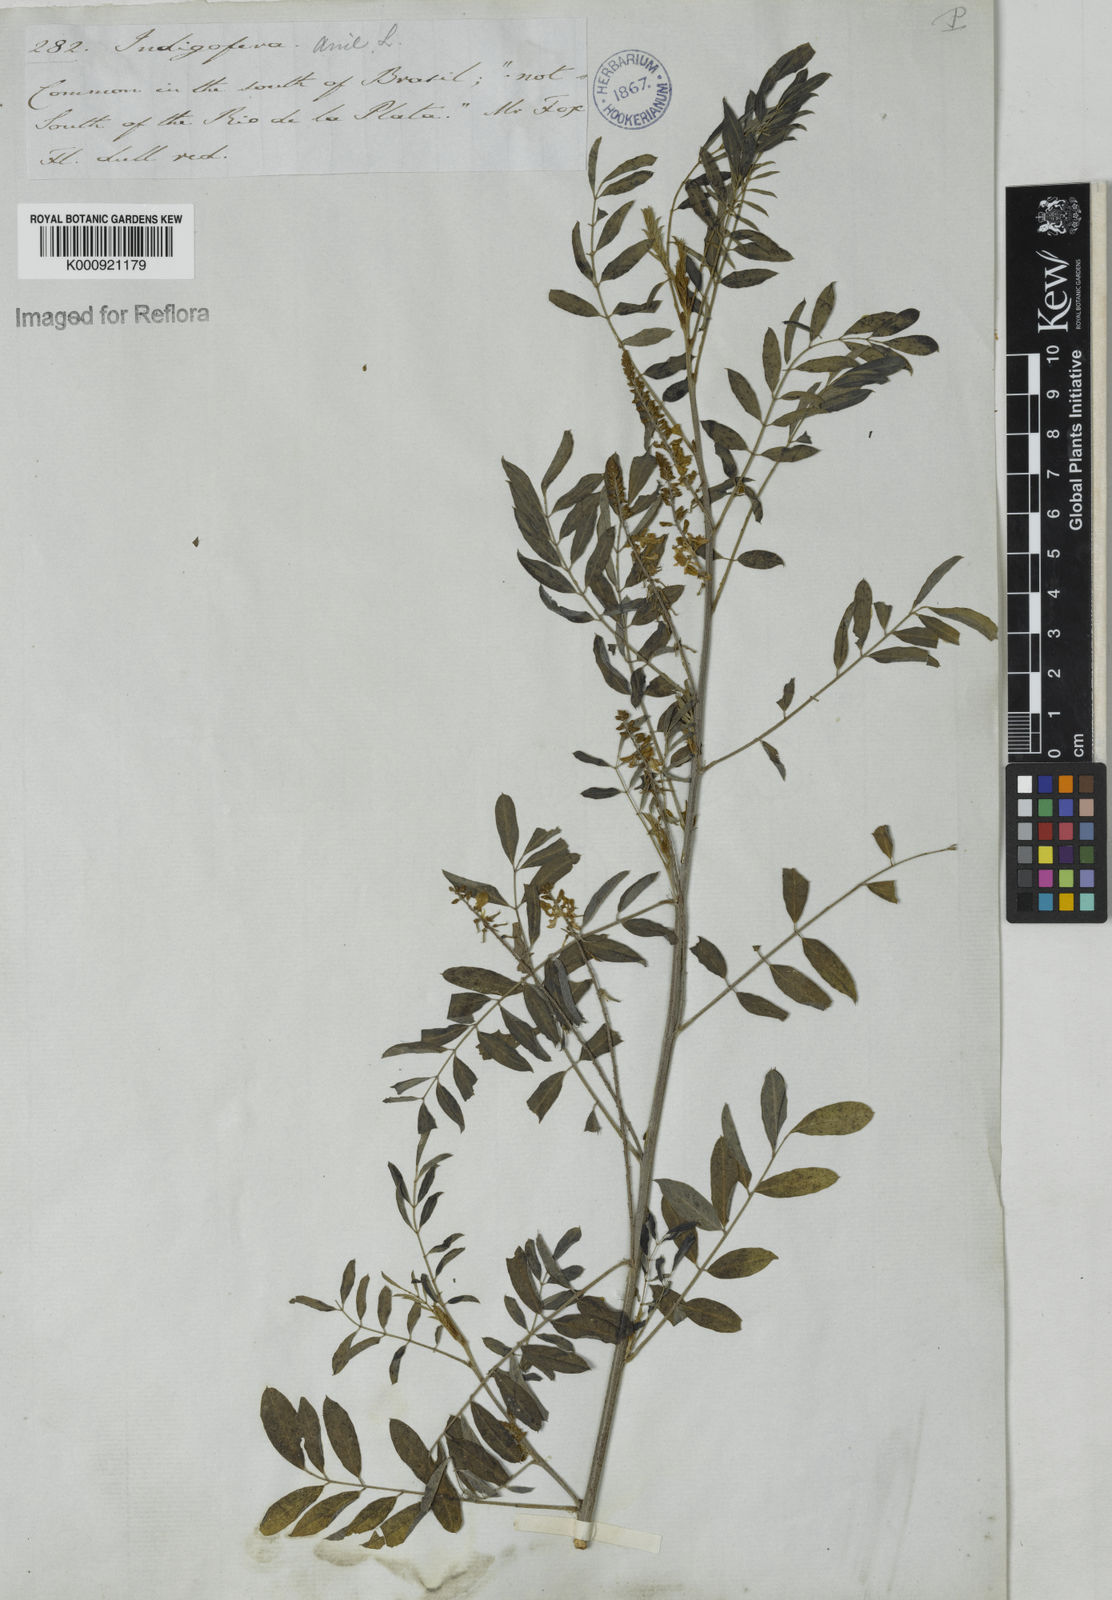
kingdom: Plantae
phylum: Tracheophyta
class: Magnoliopsida
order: Fabales
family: Fabaceae
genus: Indigofera
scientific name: Indigofera suffruticosa
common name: Anil de pasto
